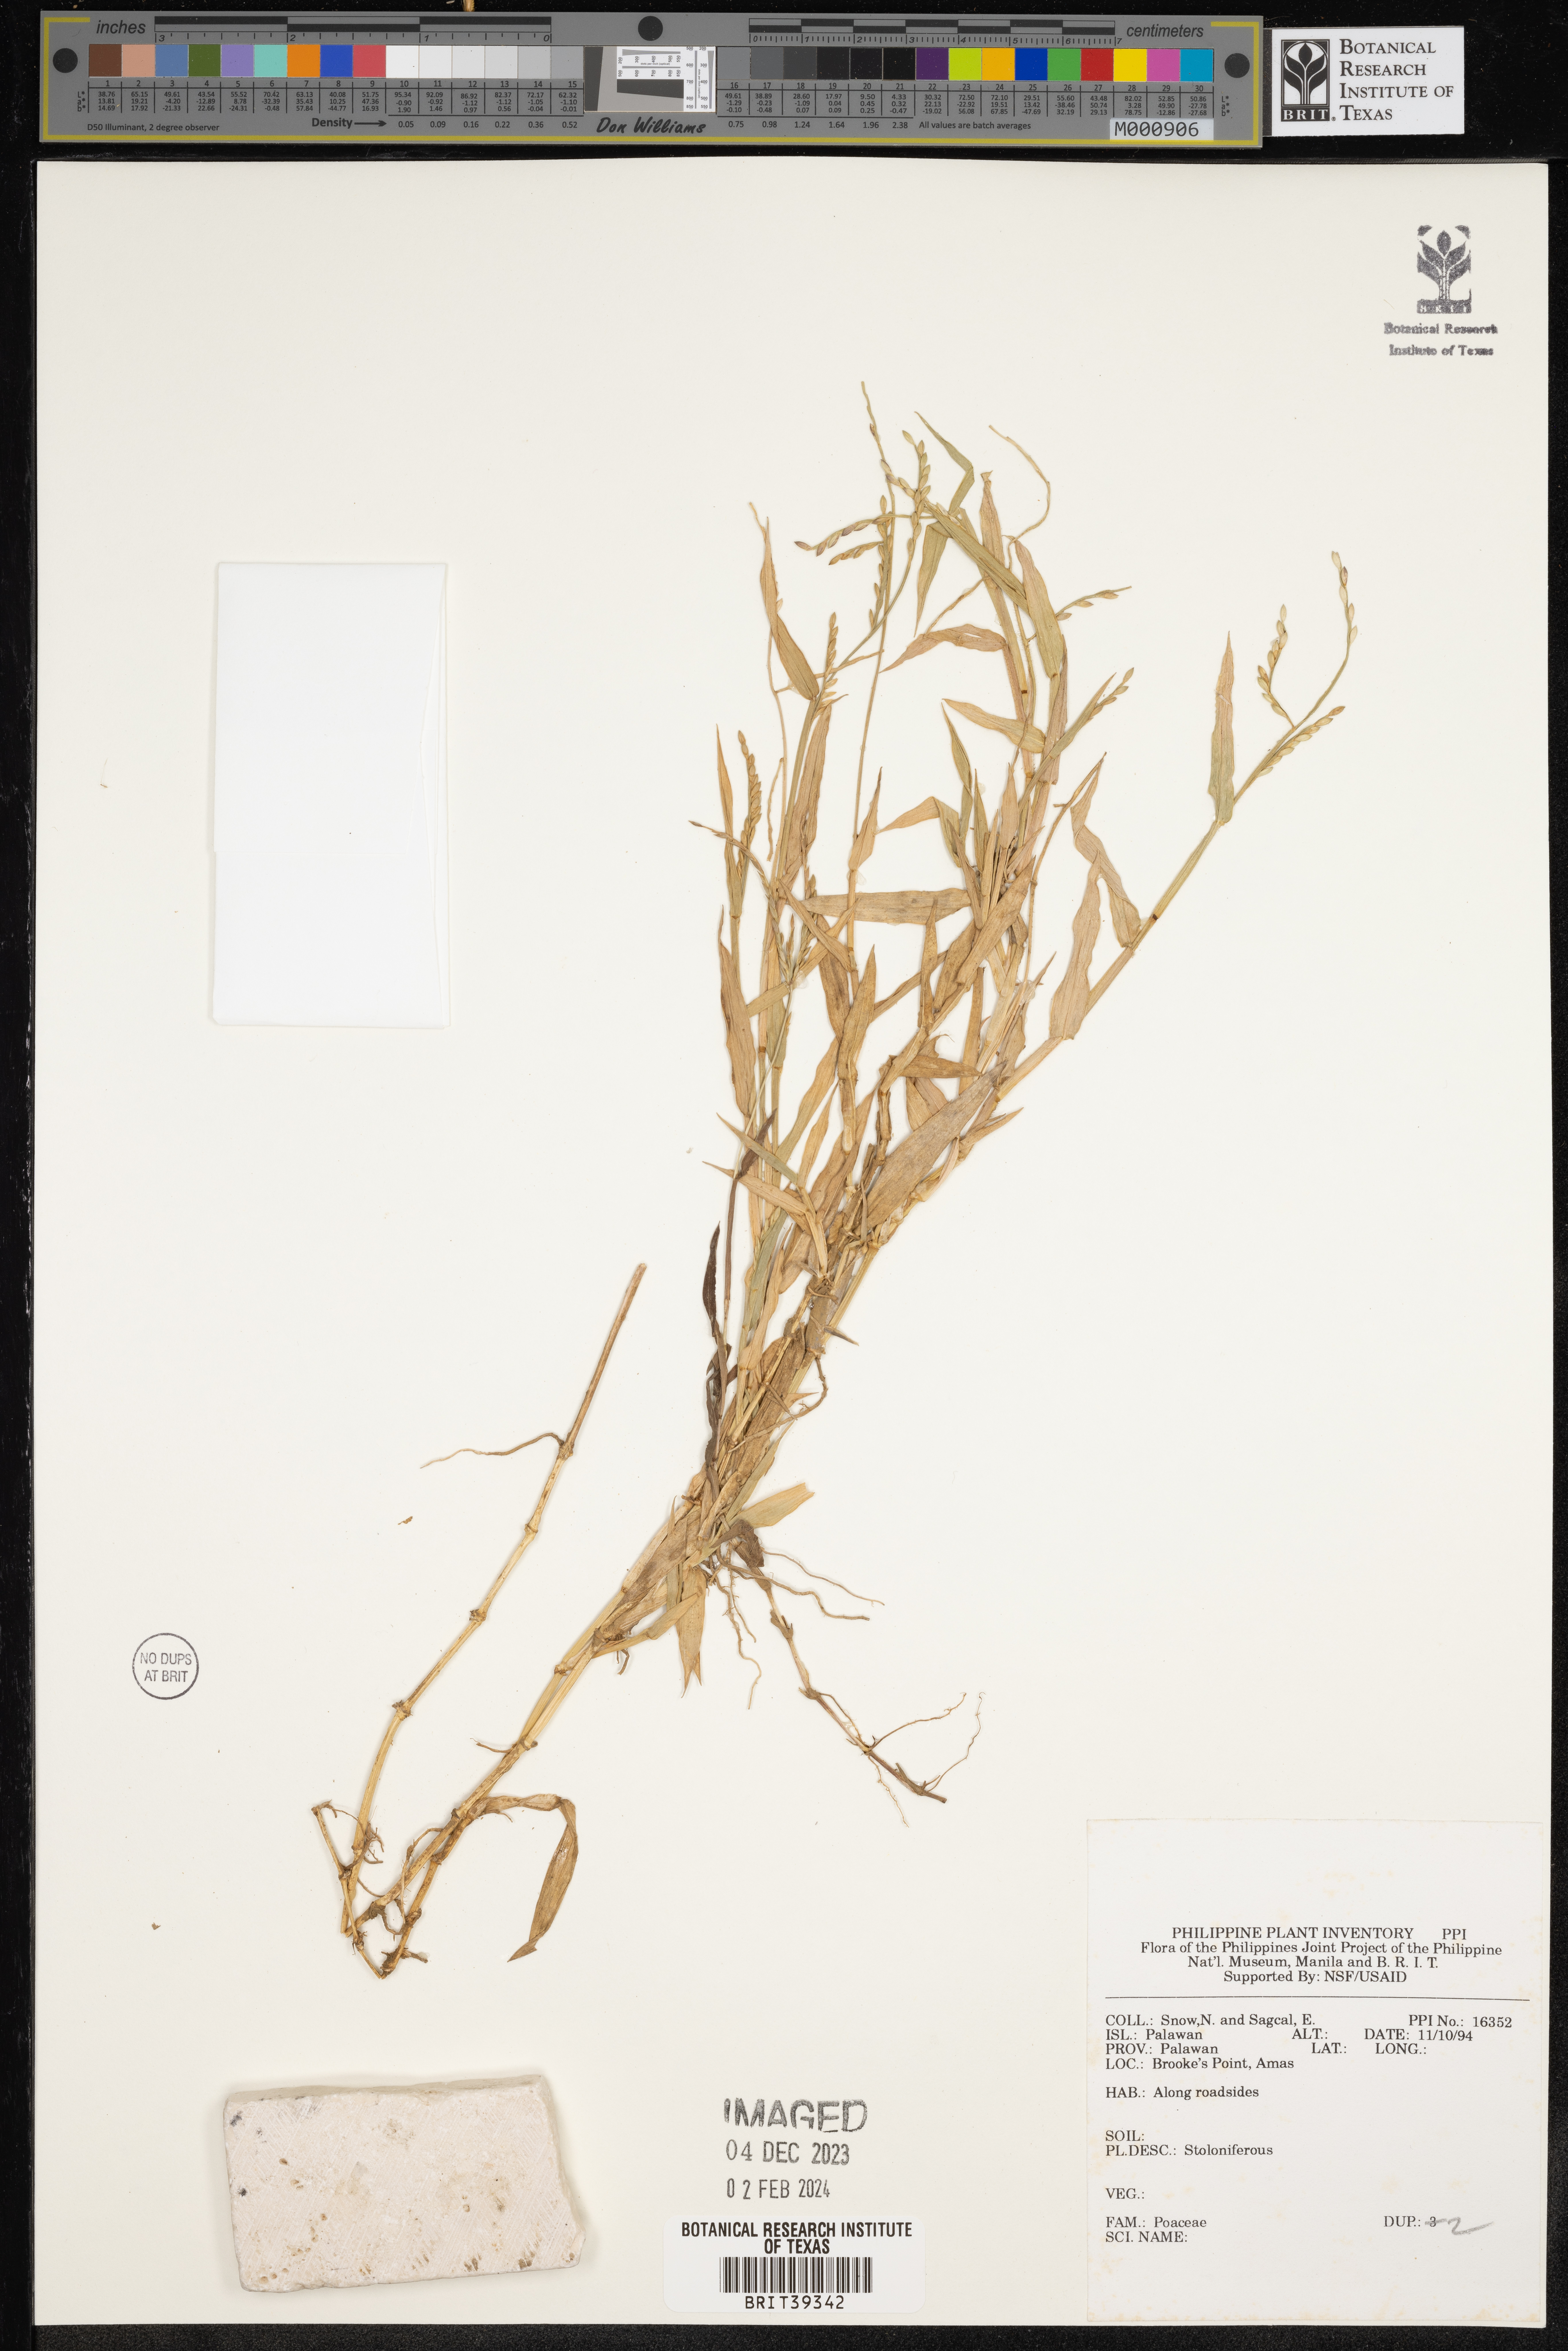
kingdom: Plantae
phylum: Tracheophyta
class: Liliopsida
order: Poales
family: Poaceae
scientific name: Poaceae
